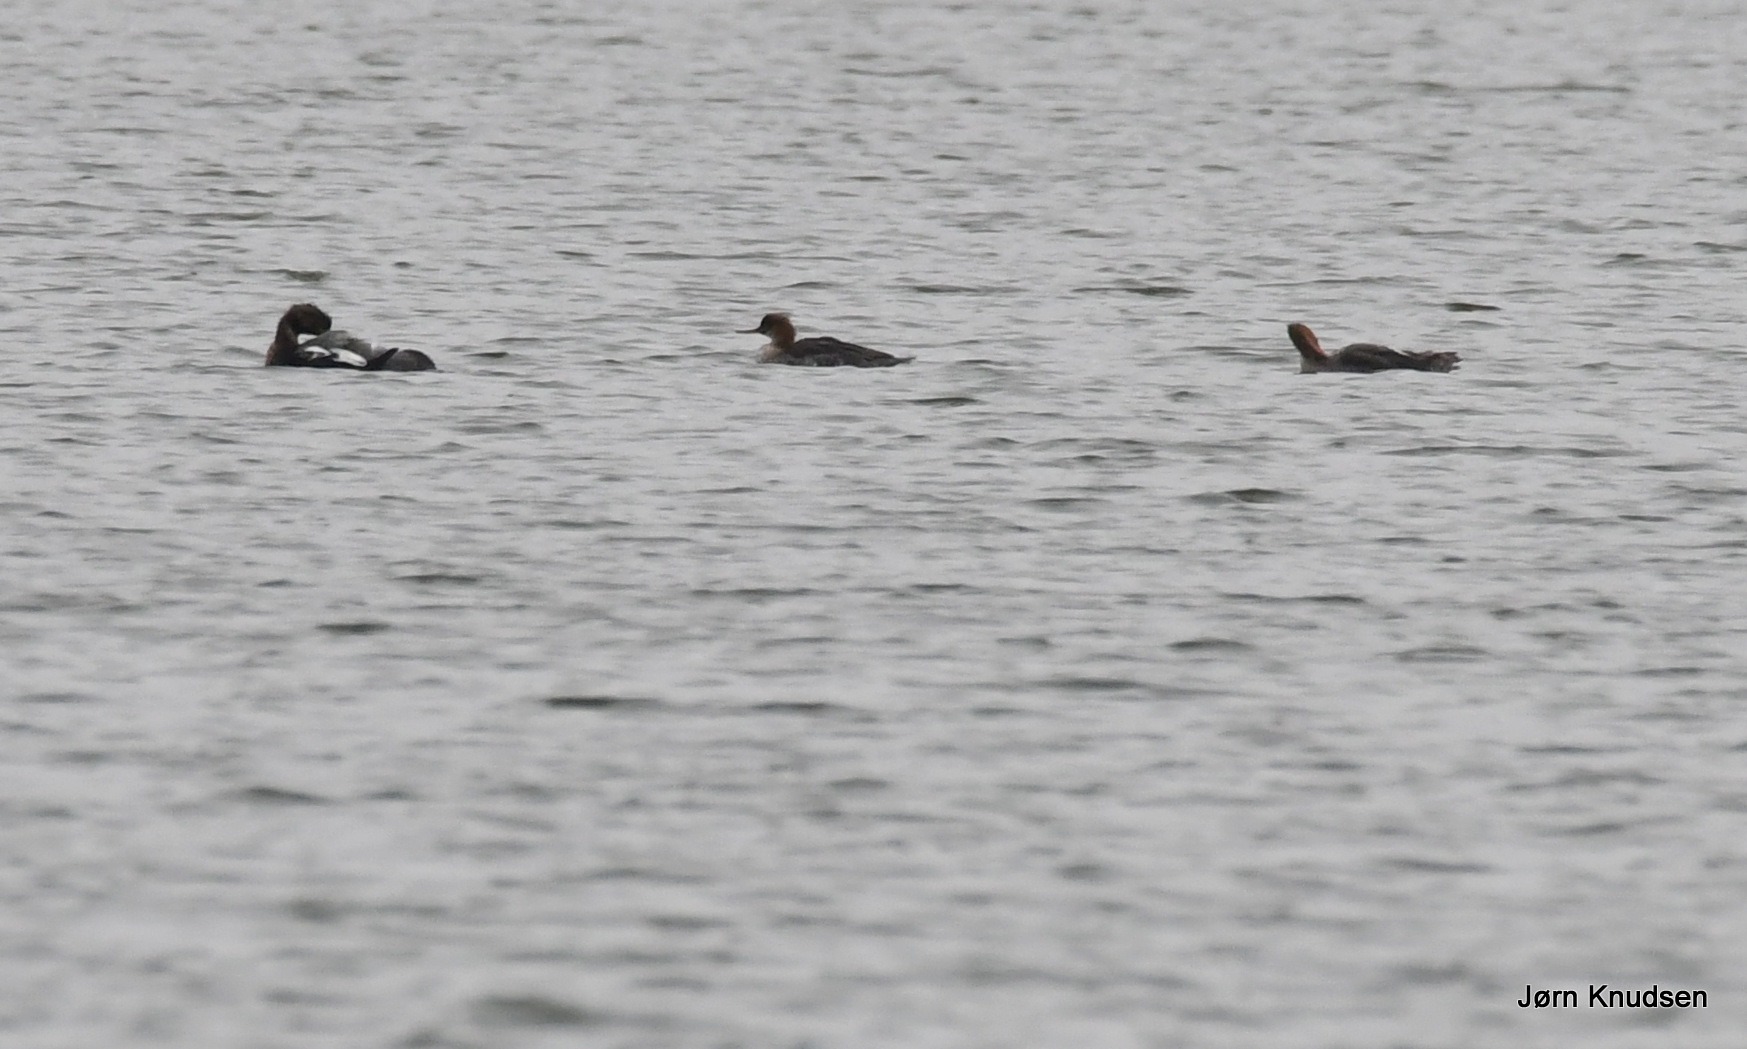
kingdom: Animalia
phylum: Chordata
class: Aves
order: Anseriformes
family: Anatidae
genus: Mergus
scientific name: Mergus serrator
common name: Toppet skallesluger
